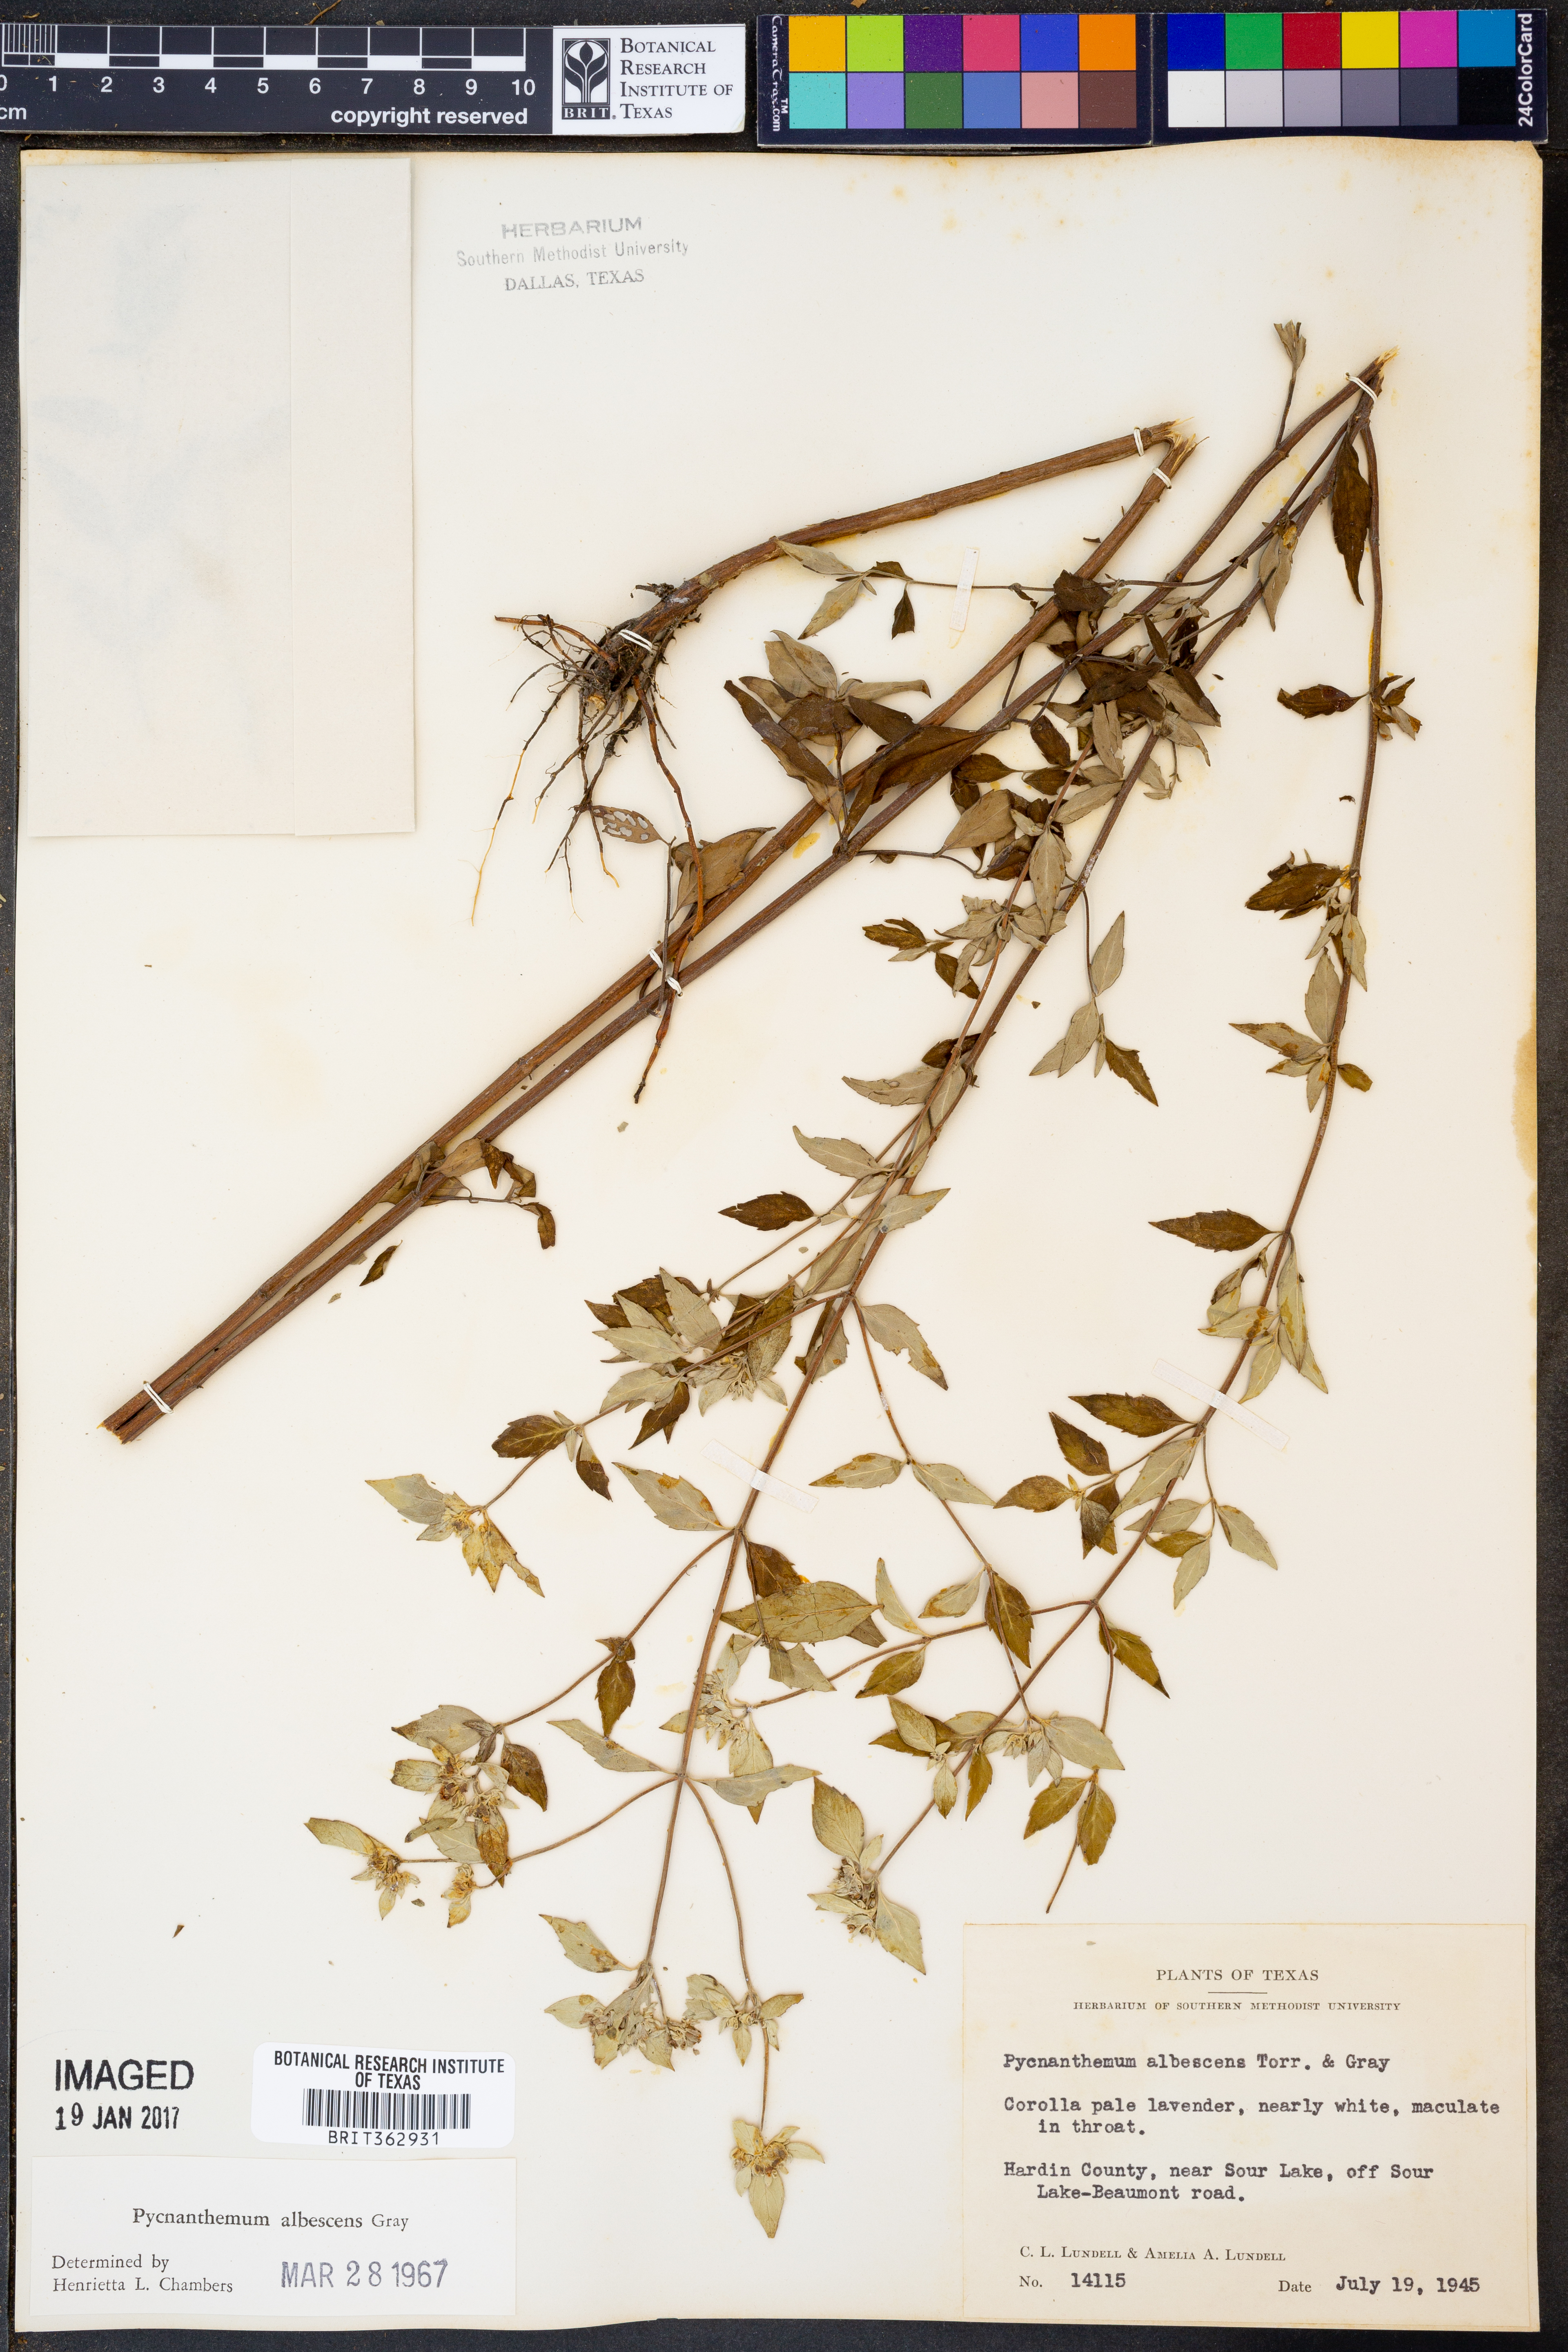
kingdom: Plantae
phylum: Tracheophyta
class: Magnoliopsida
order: Lamiales
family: Lamiaceae
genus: Pycnanthemum
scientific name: Pycnanthemum albescens
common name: White-leaf mountain-mint
